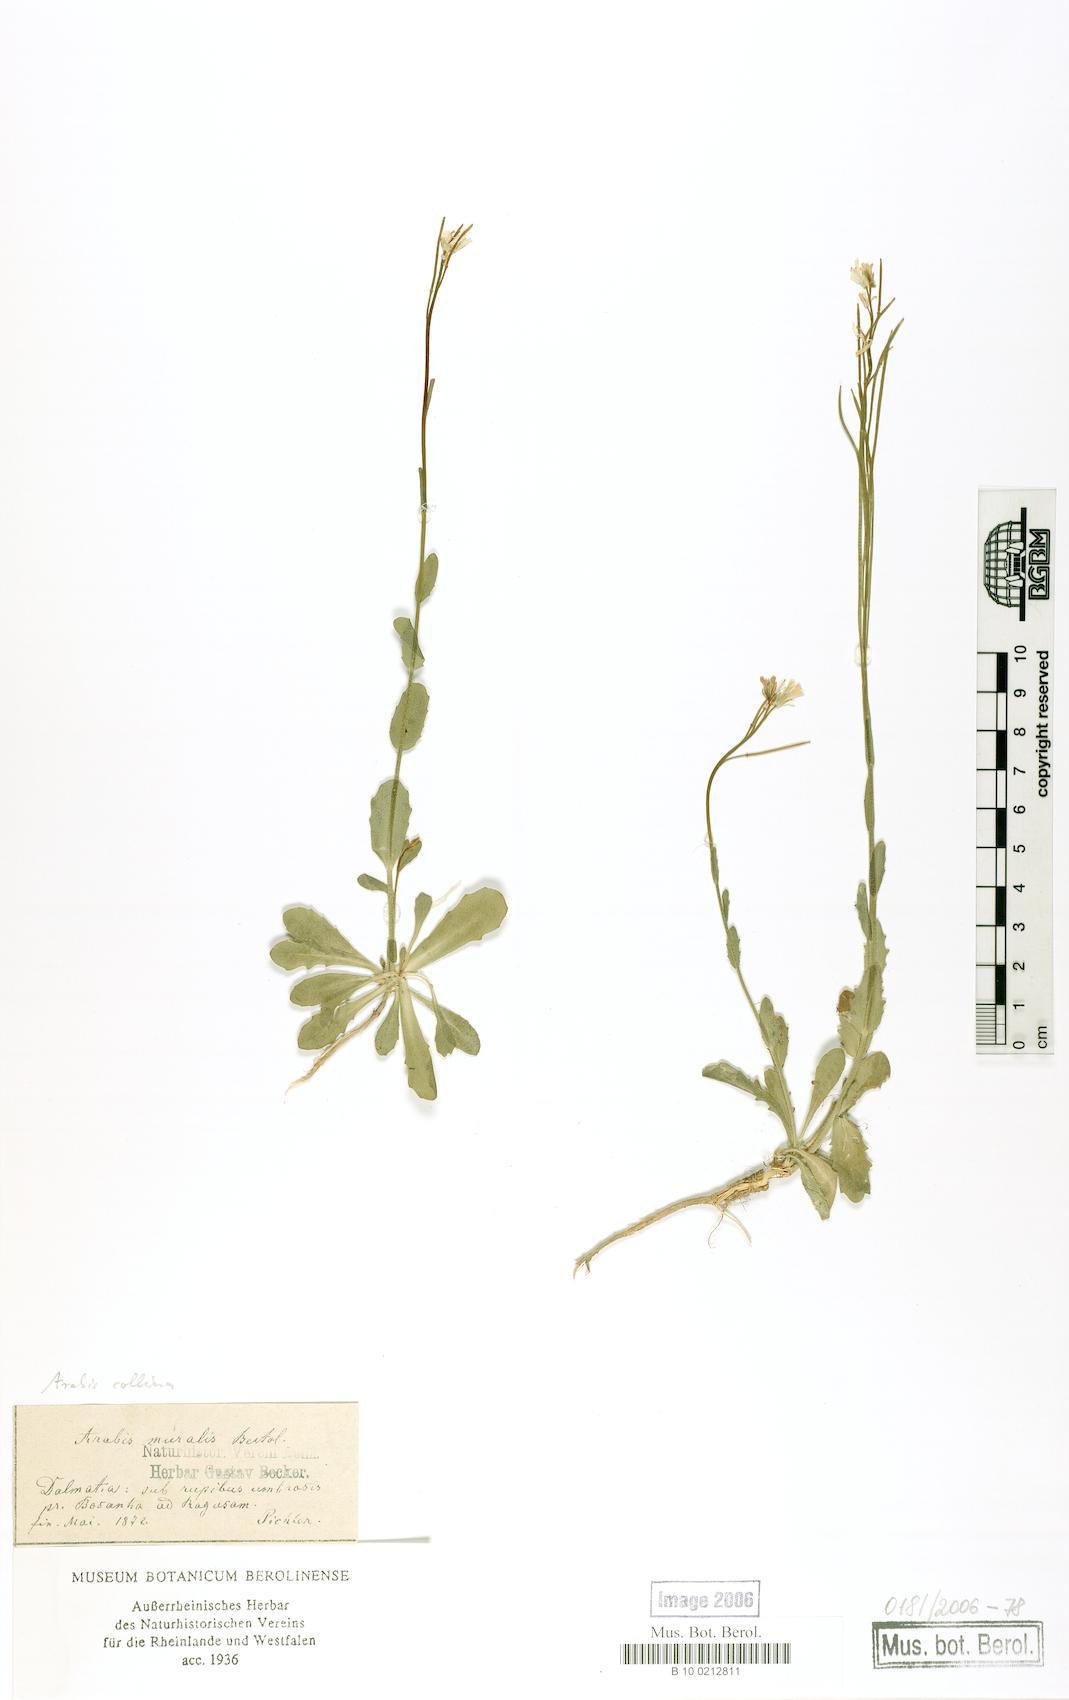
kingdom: Plantae
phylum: Tracheophyta
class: Magnoliopsida
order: Brassicales
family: Brassicaceae
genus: Arabis
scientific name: Arabis collina
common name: Rosy cress
